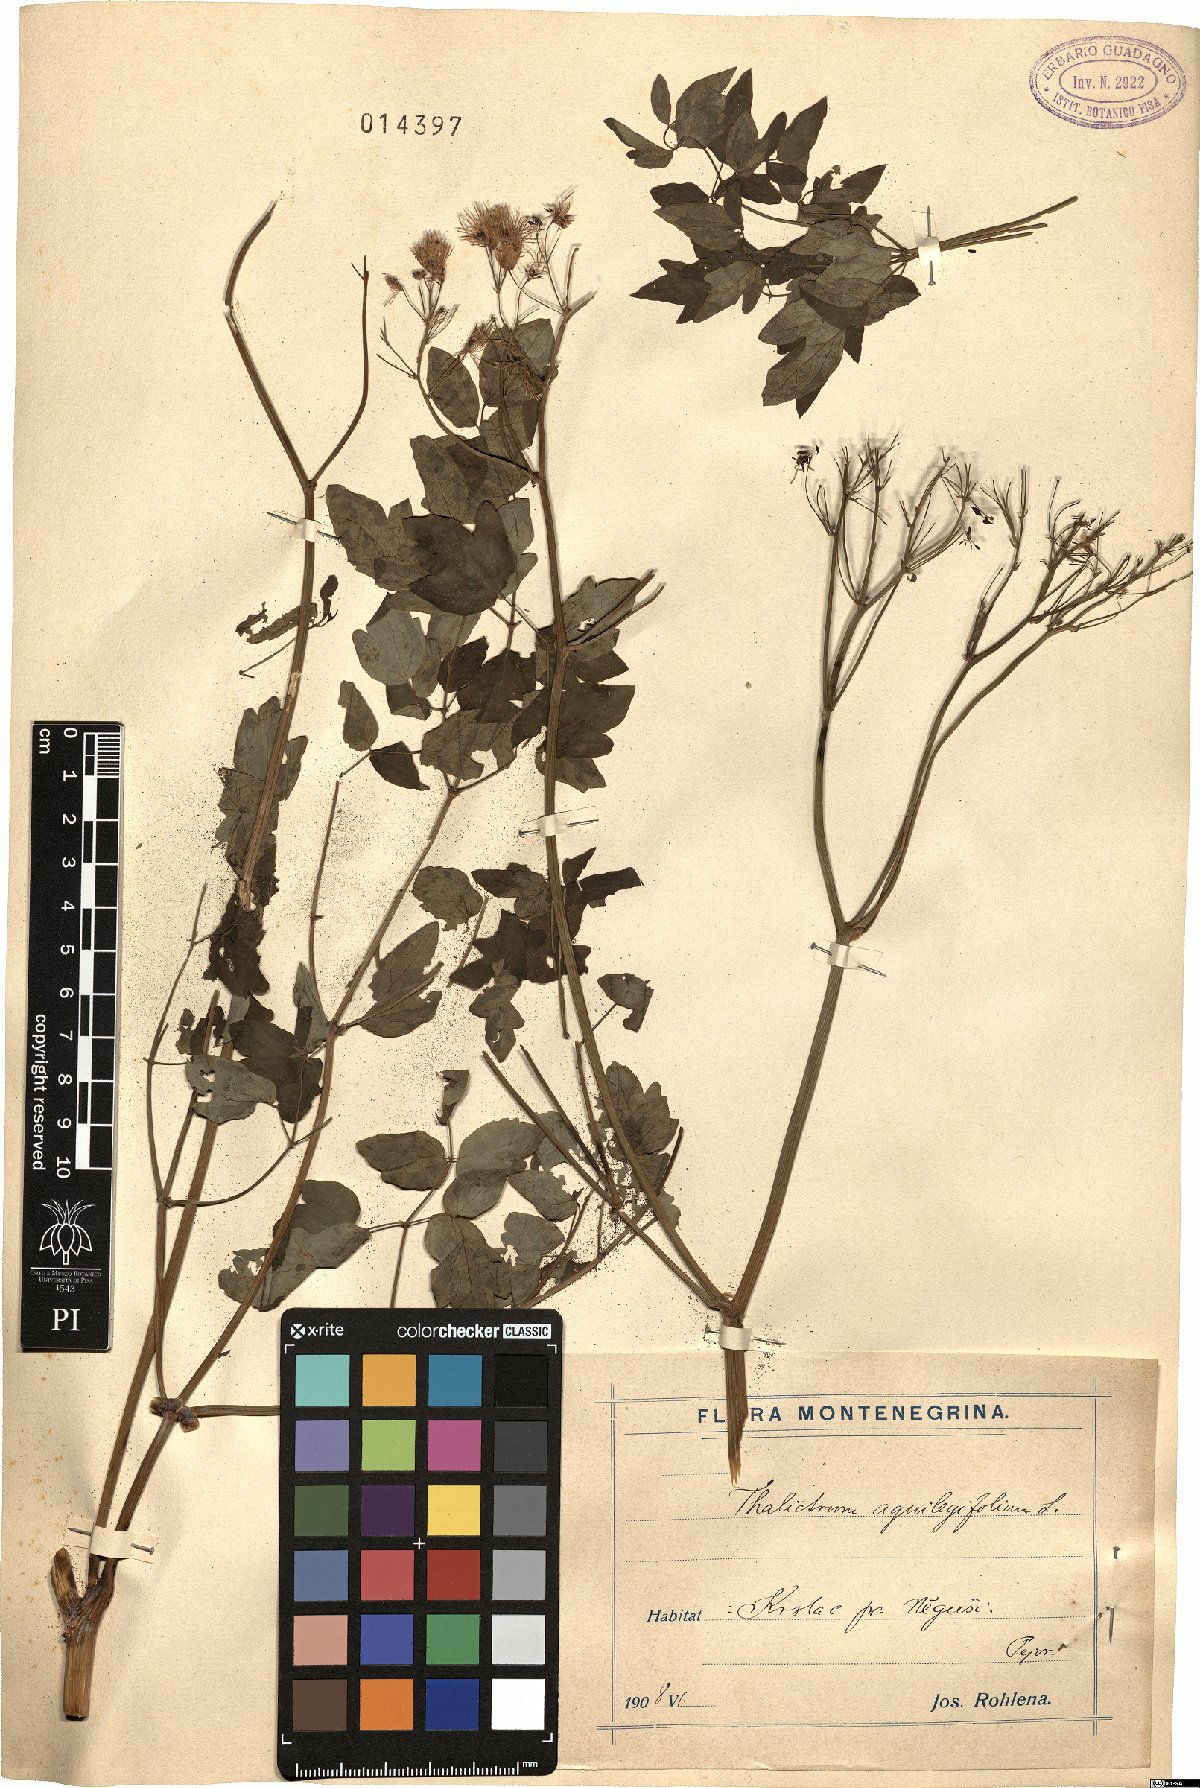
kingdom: Plantae
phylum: Tracheophyta
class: Magnoliopsida
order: Ranunculales
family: Ranunculaceae
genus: Thalictrum
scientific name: Thalictrum aquilegiifolium
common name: French meadow-rue
